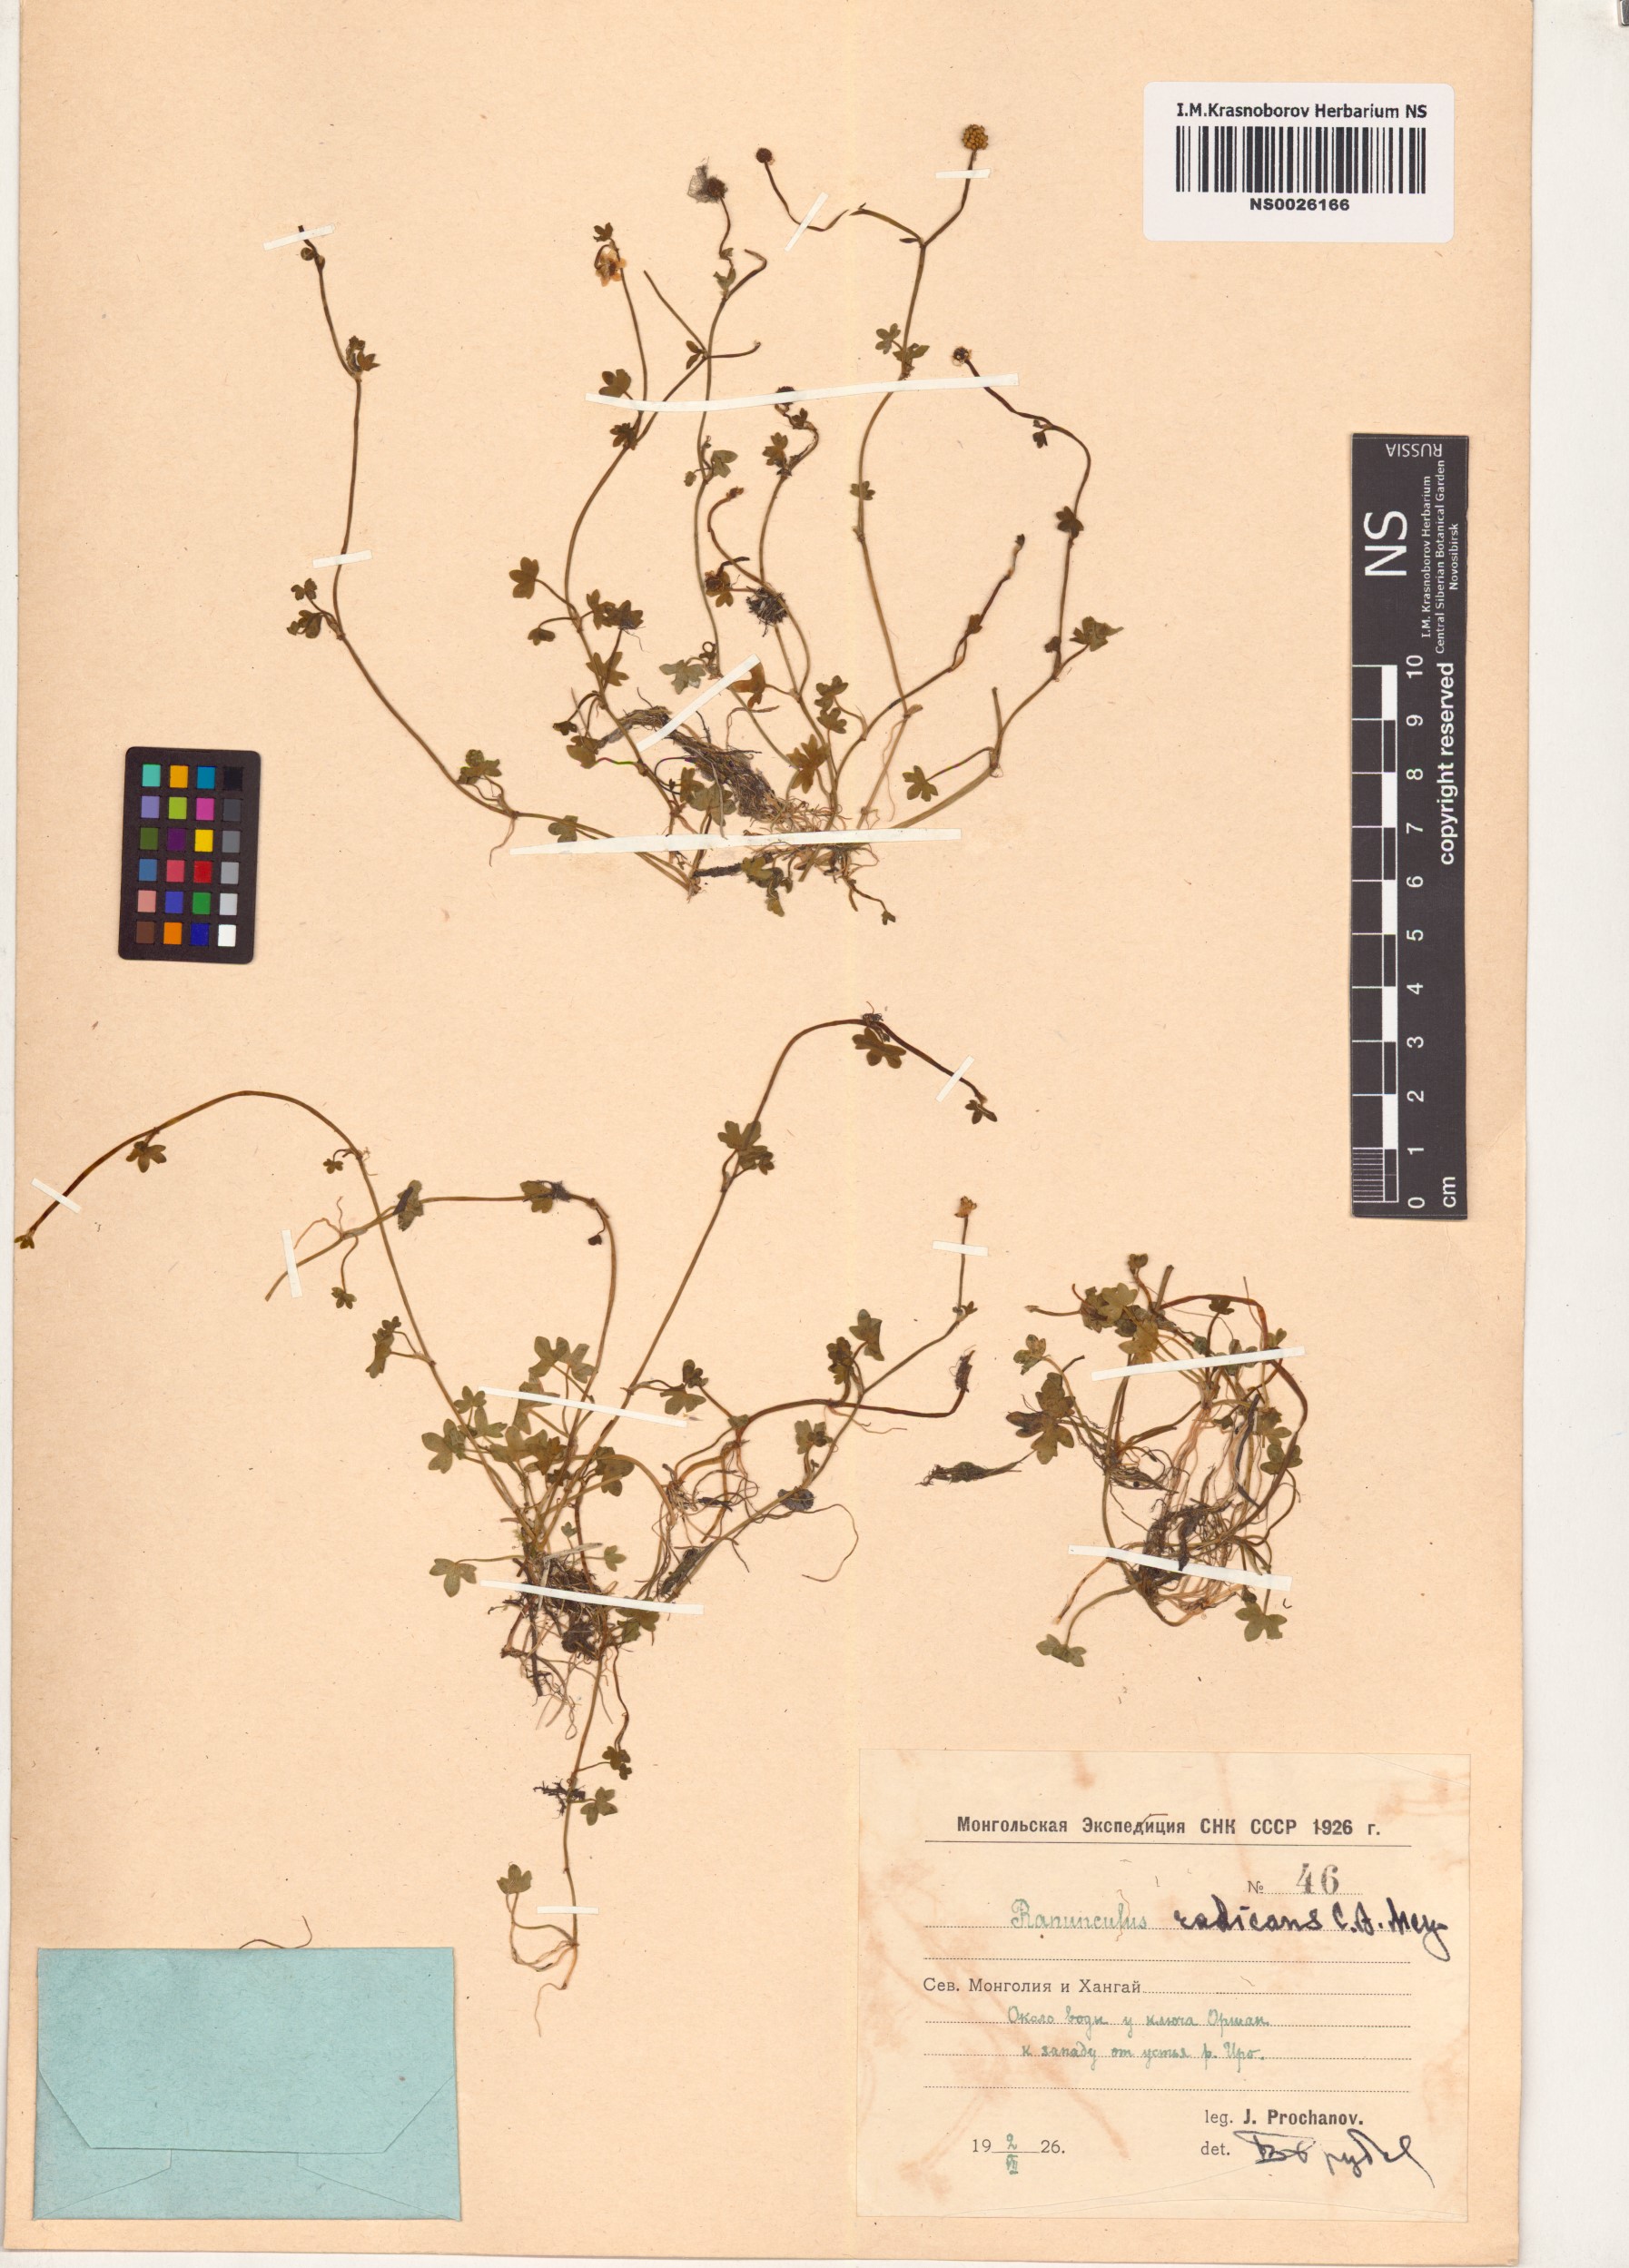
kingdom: Plantae
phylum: Tracheophyta
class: Magnoliopsida
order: Ranunculales
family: Ranunculaceae
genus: Ranunculus
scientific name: Ranunculus radicans
